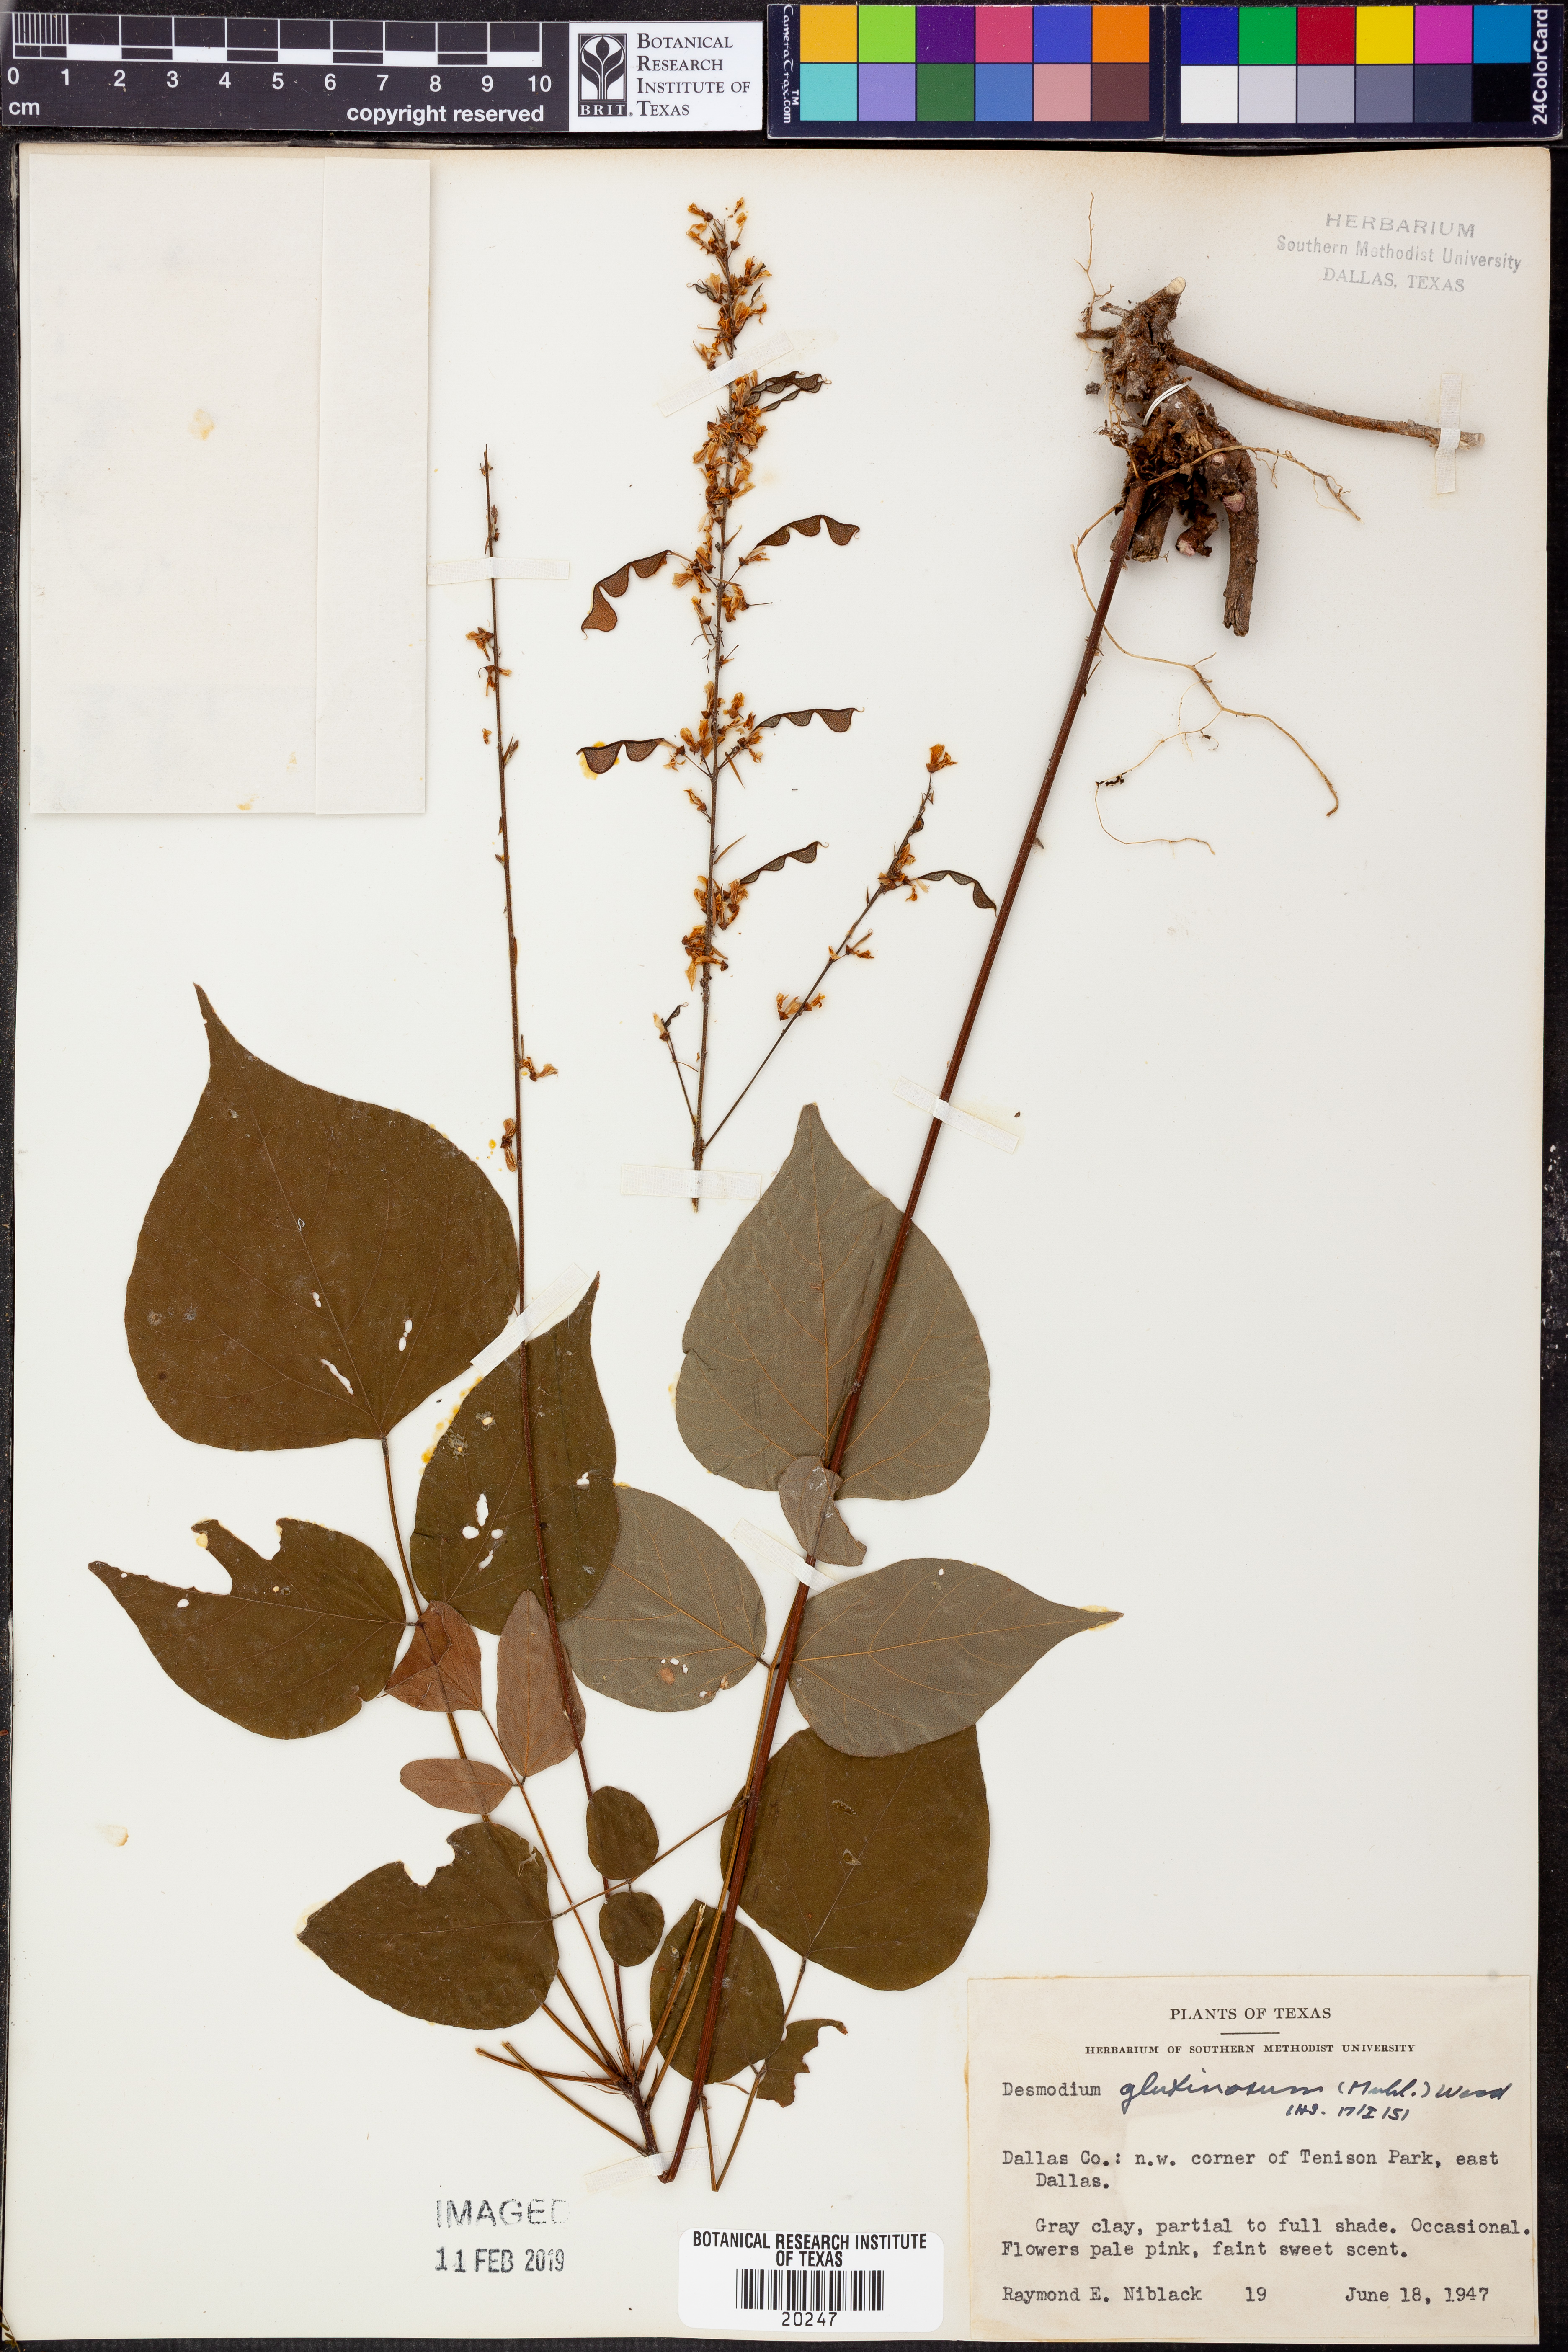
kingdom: Plantae
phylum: Tracheophyta
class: Magnoliopsida
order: Fabales
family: Fabaceae
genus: Hylodesmum
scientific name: Hylodesmum glutinosum
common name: Clustered-leaved tick-trefoil
